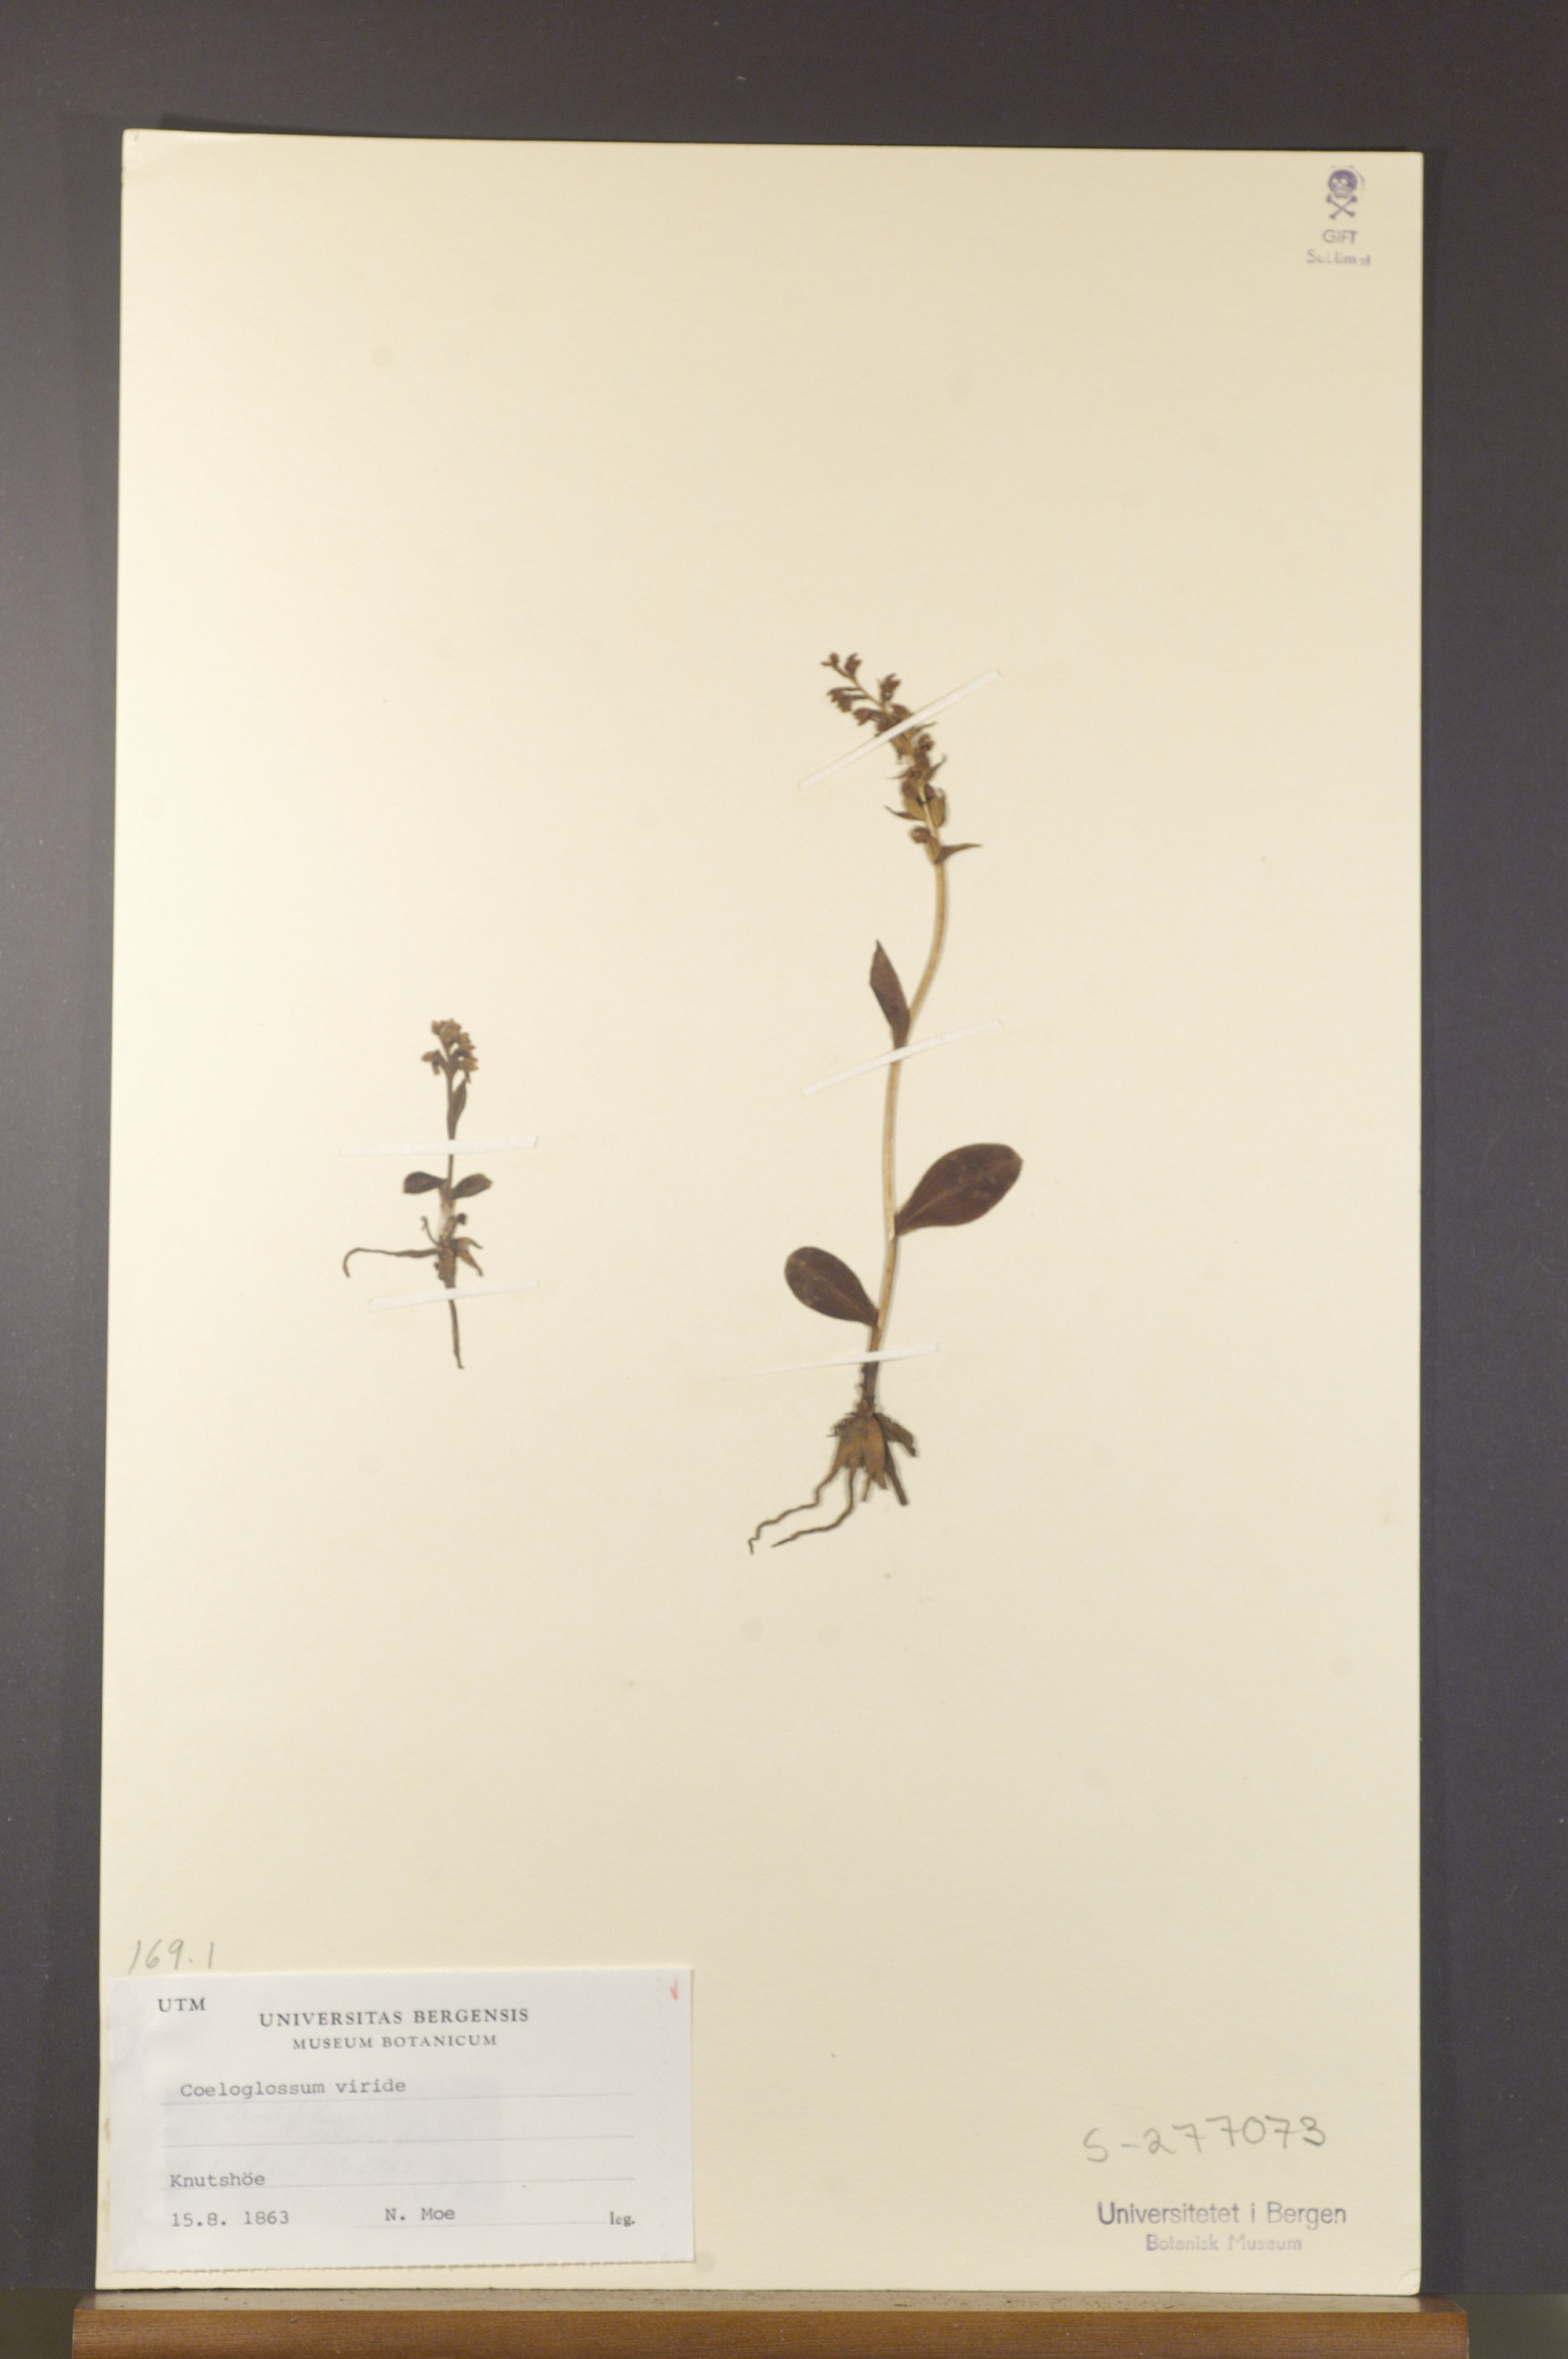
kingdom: Plantae
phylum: Tracheophyta
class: Liliopsida
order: Asparagales
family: Orchidaceae
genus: Dactylorhiza
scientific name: Dactylorhiza viridis
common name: Longbract frog orchid
